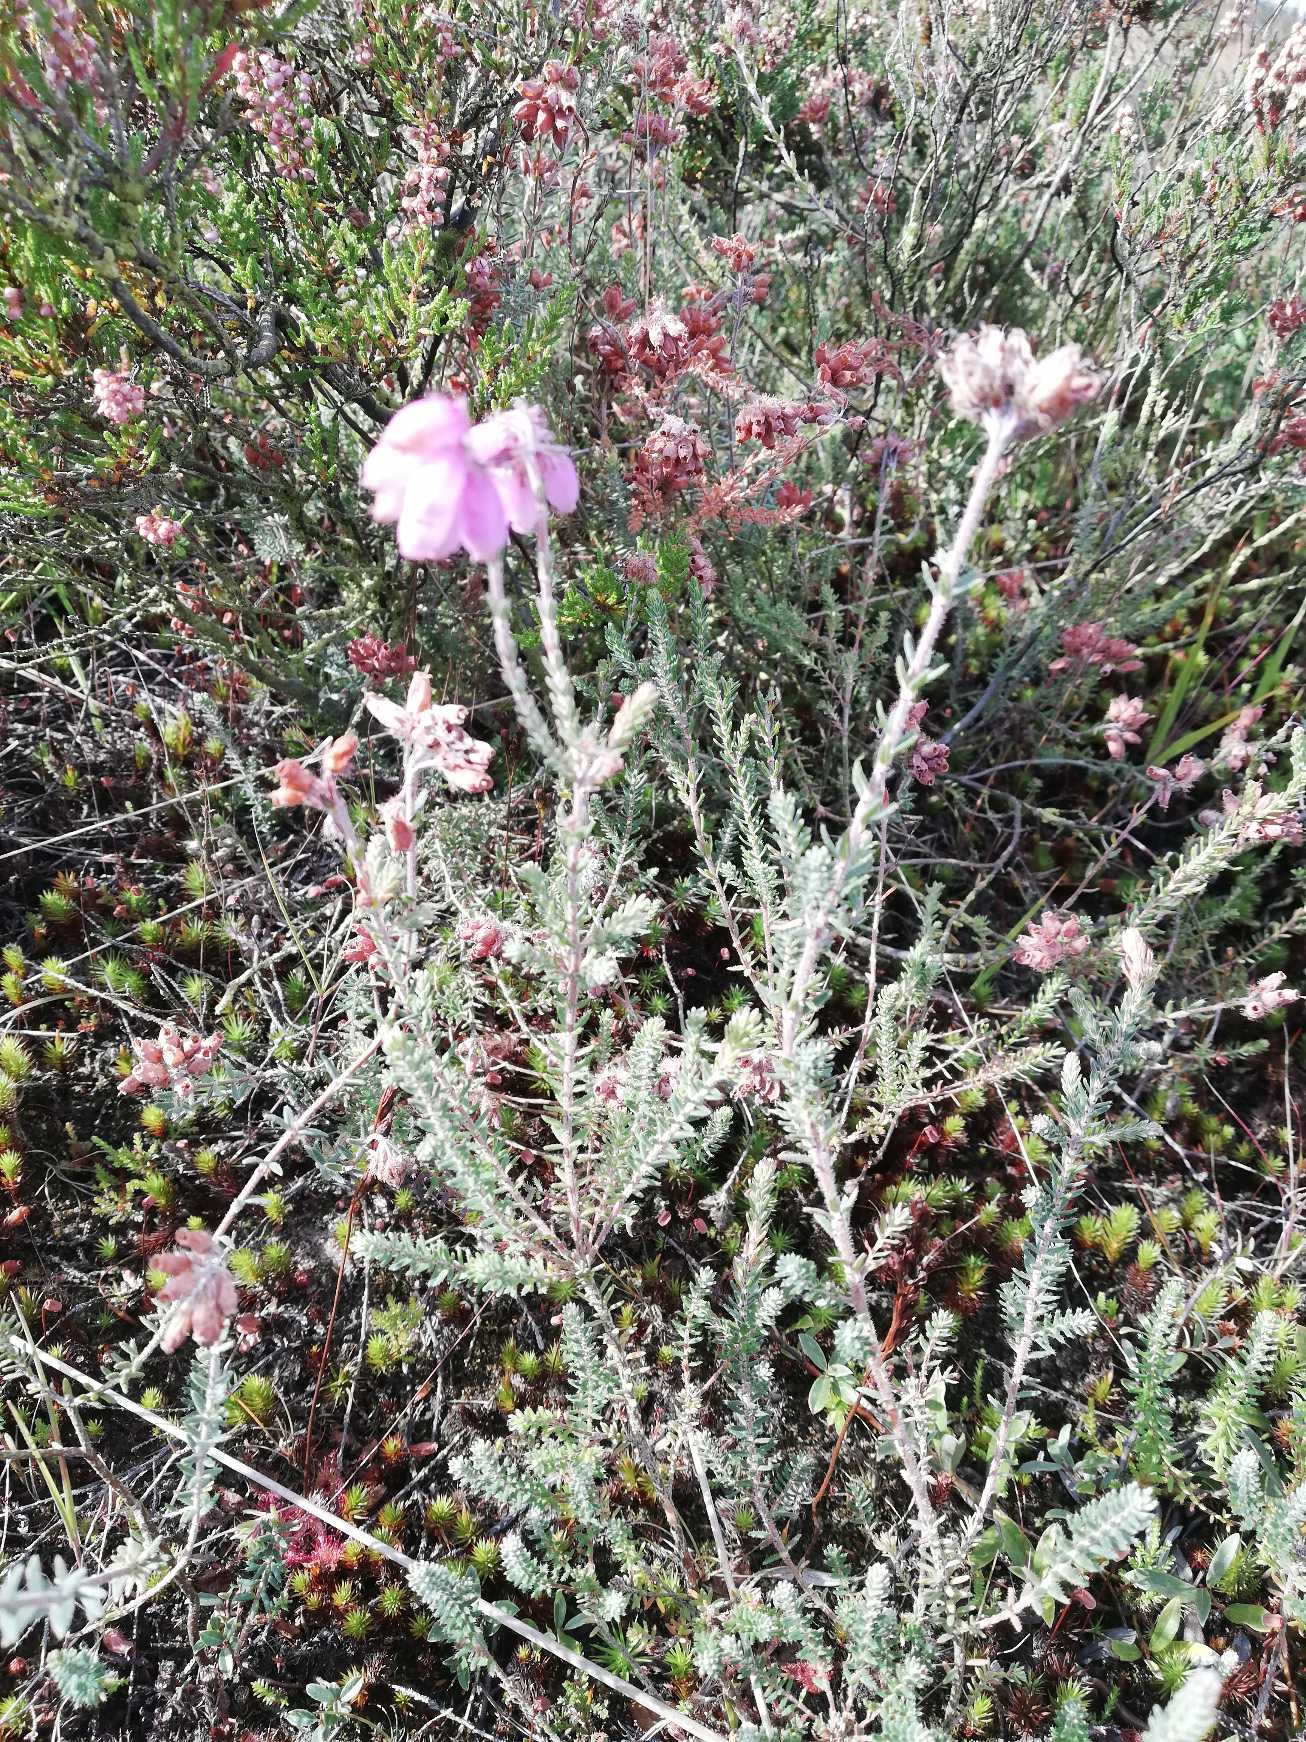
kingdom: Plantae
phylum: Tracheophyta
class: Magnoliopsida
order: Ericales
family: Ericaceae
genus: Erica
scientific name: Erica tetralix
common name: Klokkelyng
